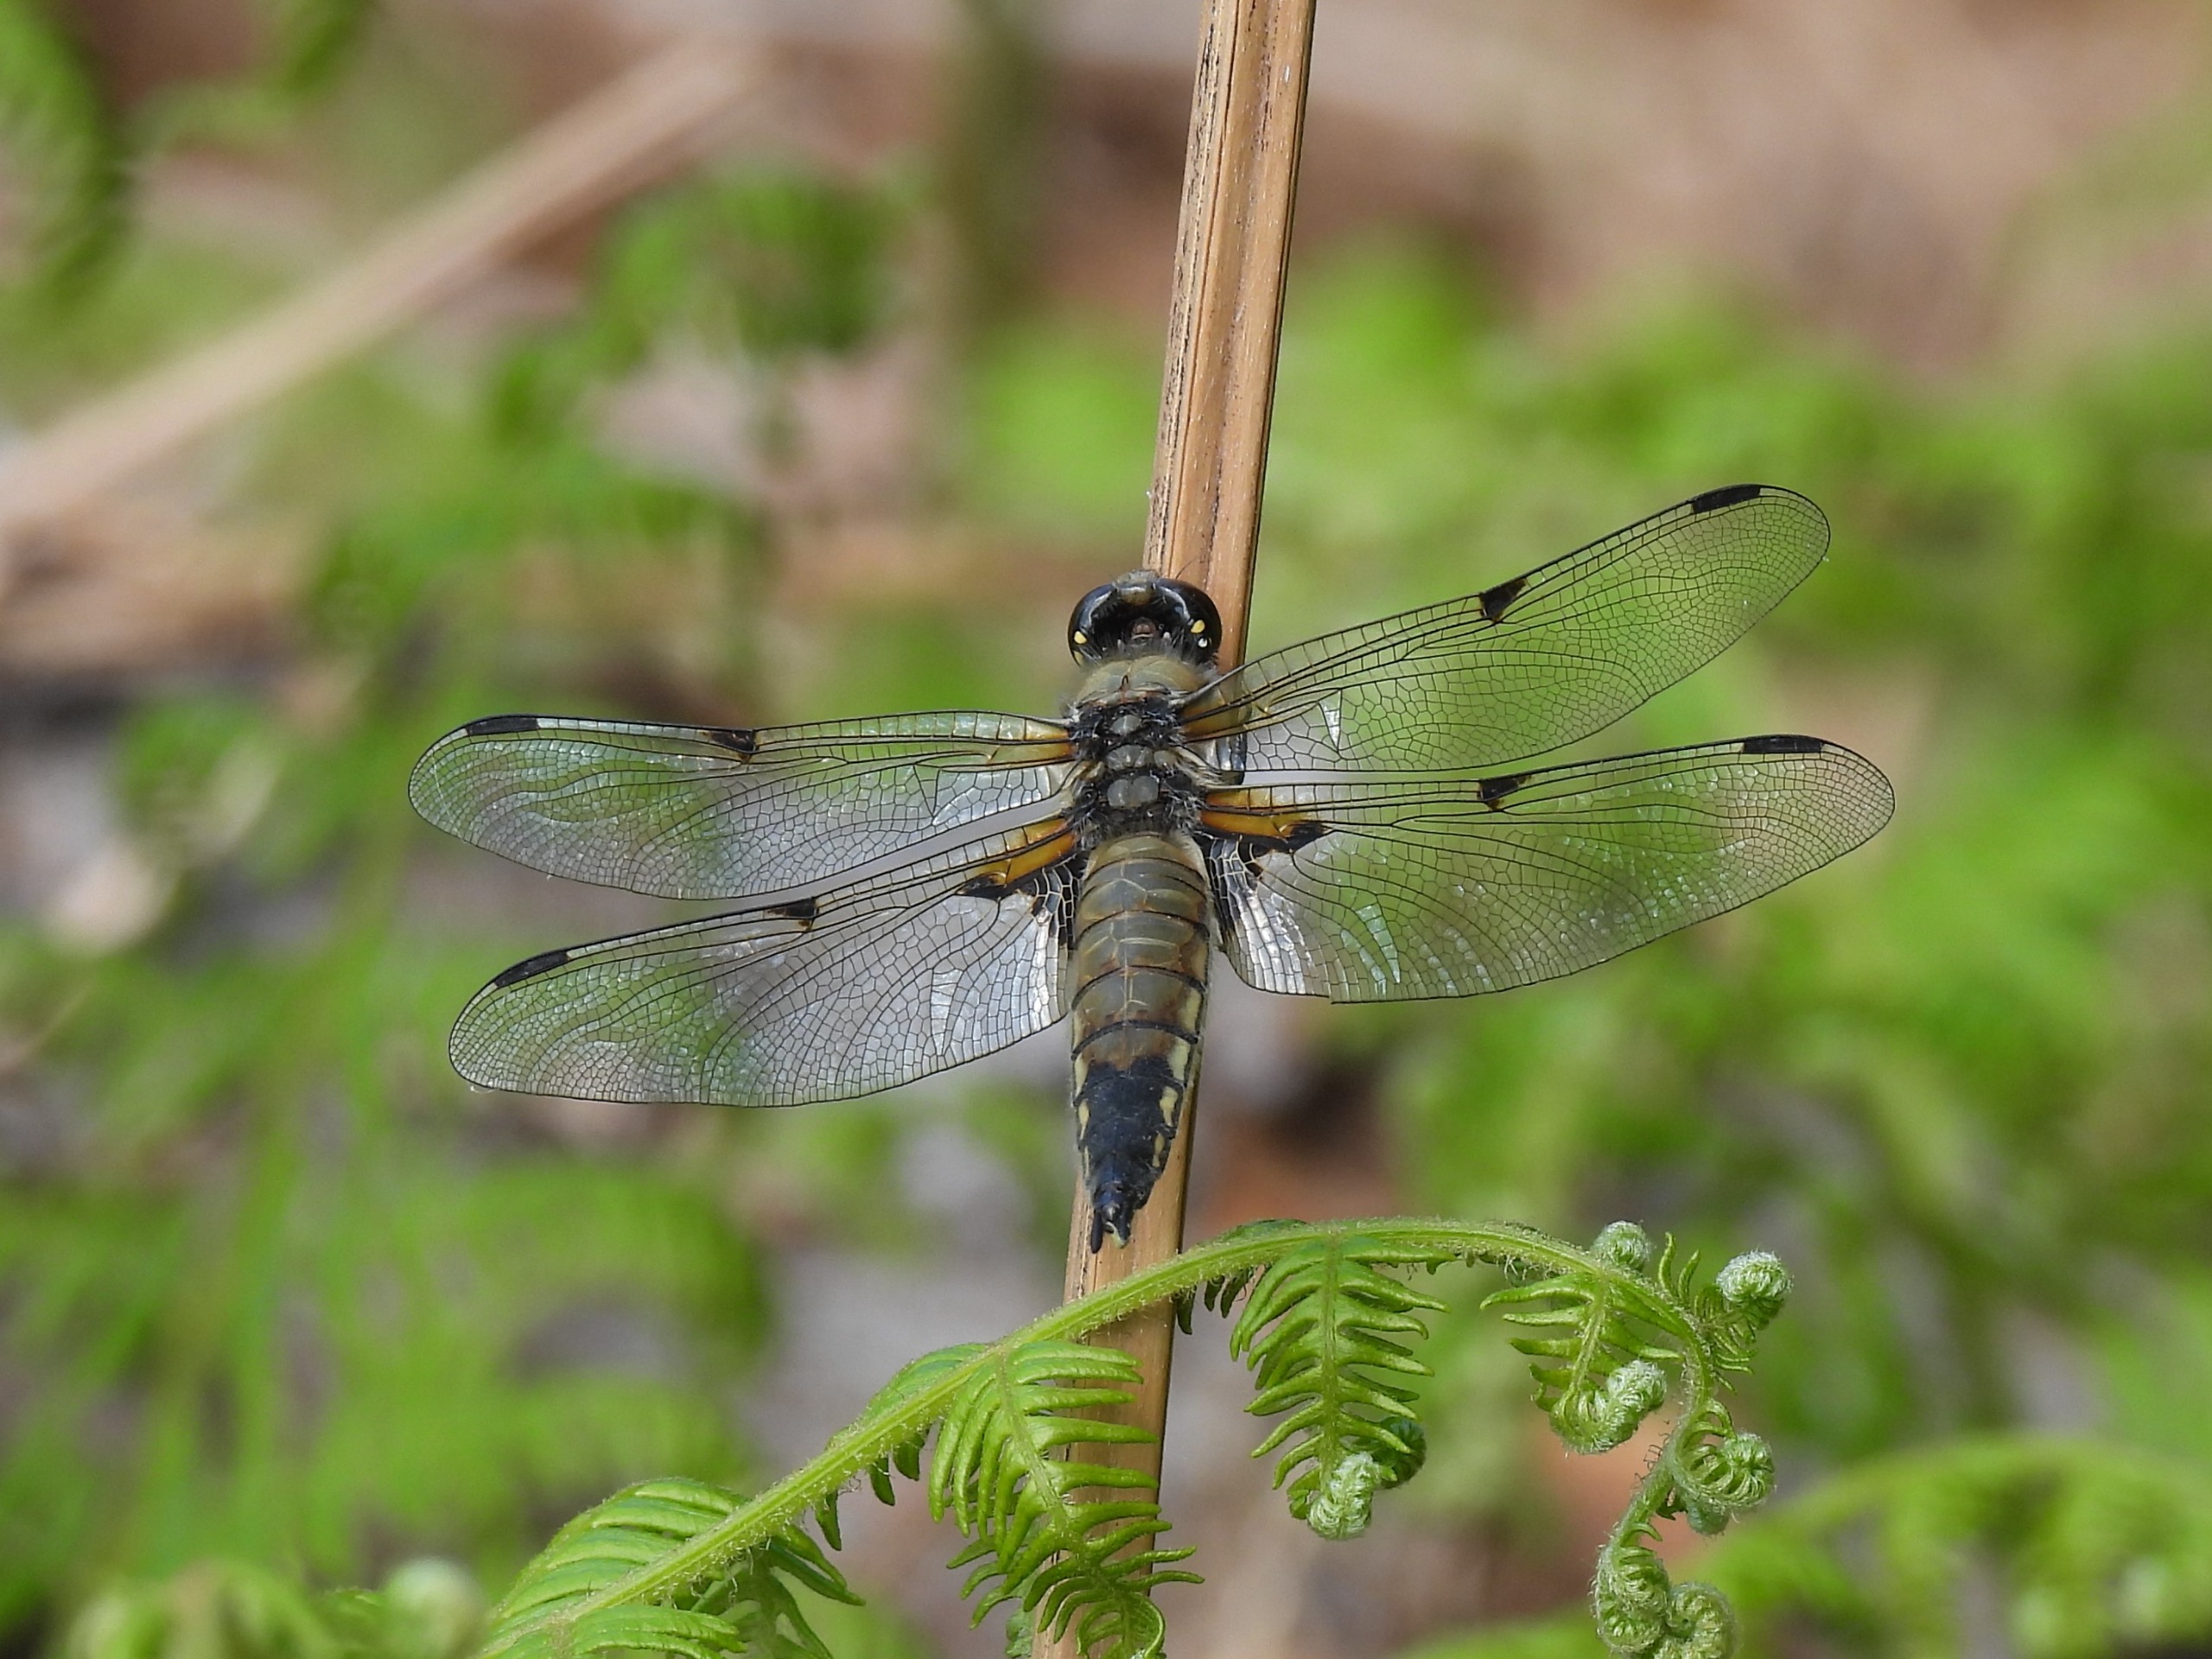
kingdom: Animalia
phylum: Arthropoda
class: Insecta
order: Odonata
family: Libellulidae
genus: Libellula
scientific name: Libellula quadrimaculata
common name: Fireplettet libel
